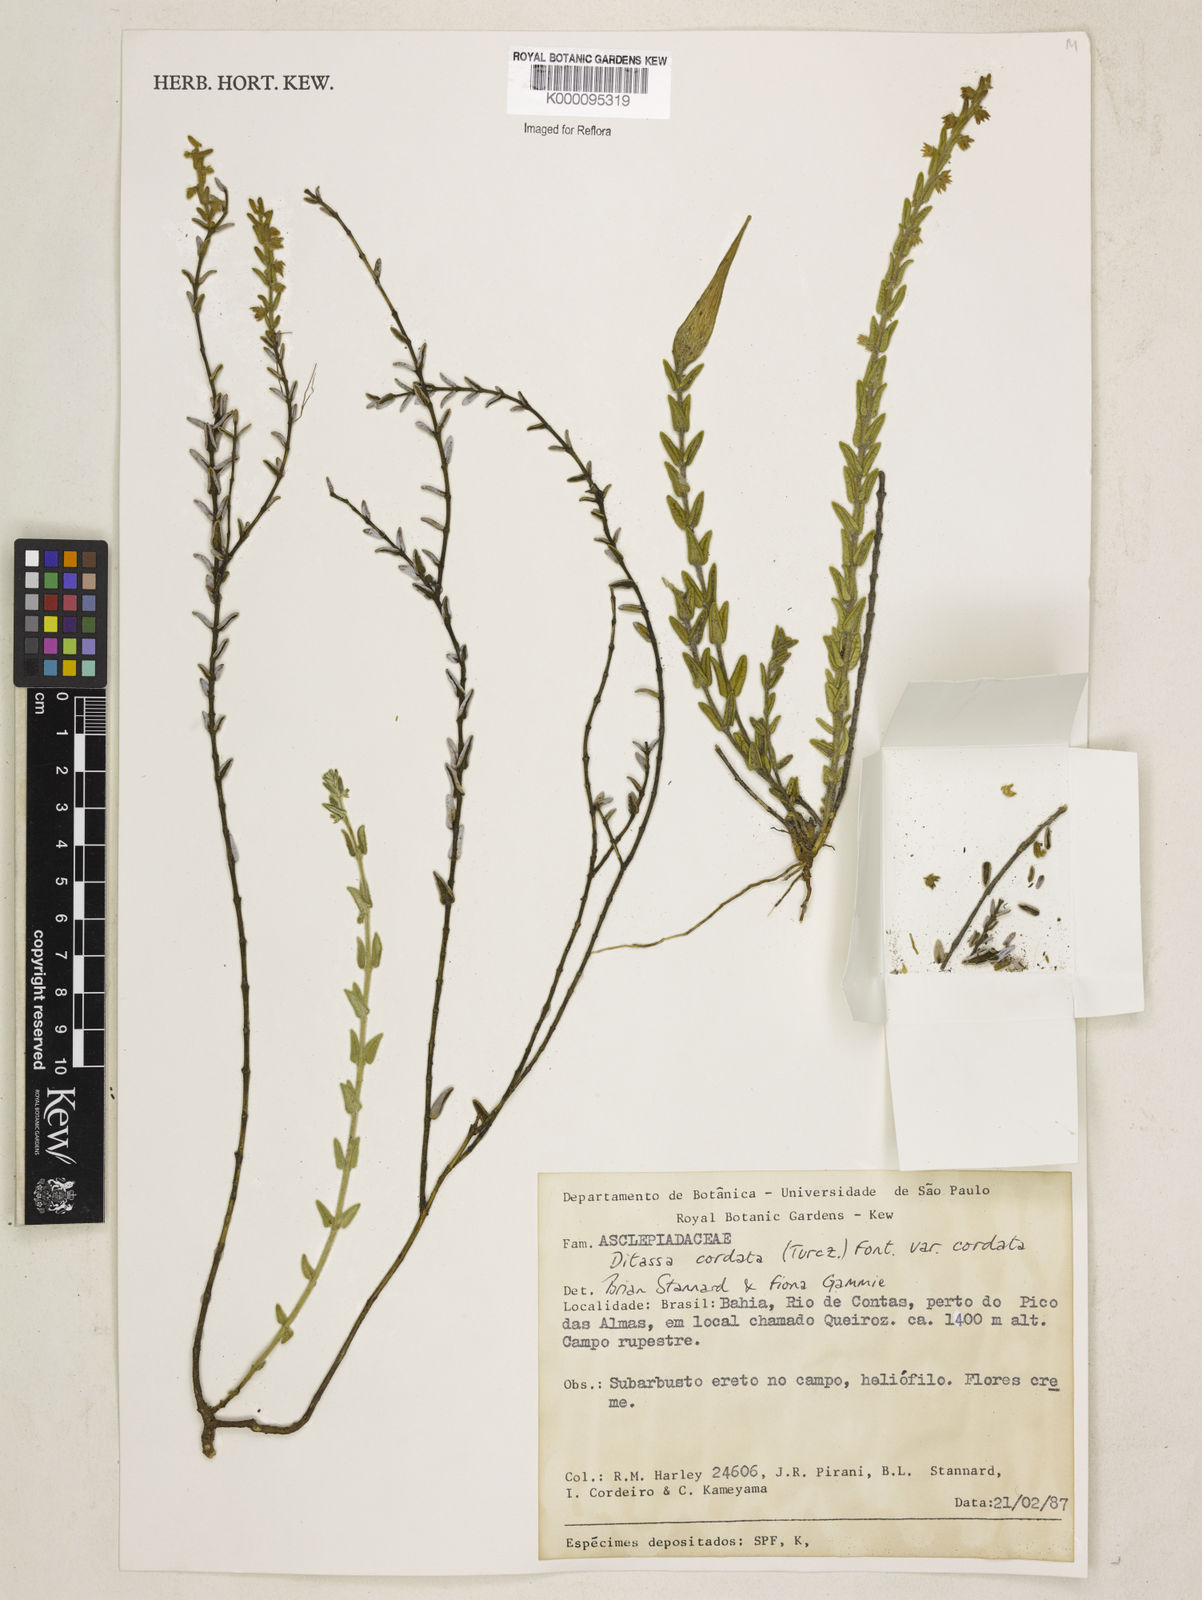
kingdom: Plantae
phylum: Tracheophyta
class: Magnoliopsida
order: Gentianales
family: Apocynaceae
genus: Minaria
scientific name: Minaria cordata
